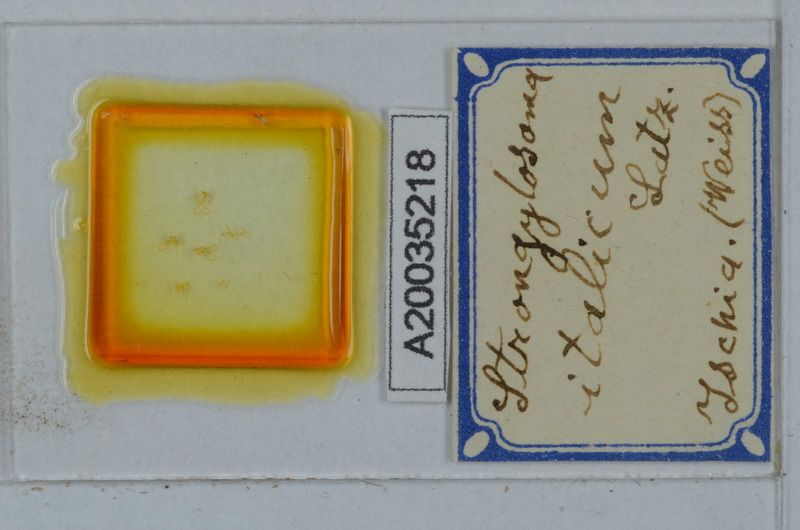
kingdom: Animalia
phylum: Arthropoda
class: Diplopoda
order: Polydesmida
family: Paradoxosomatidae
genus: Strongylosoma
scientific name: Strongylosoma italica
